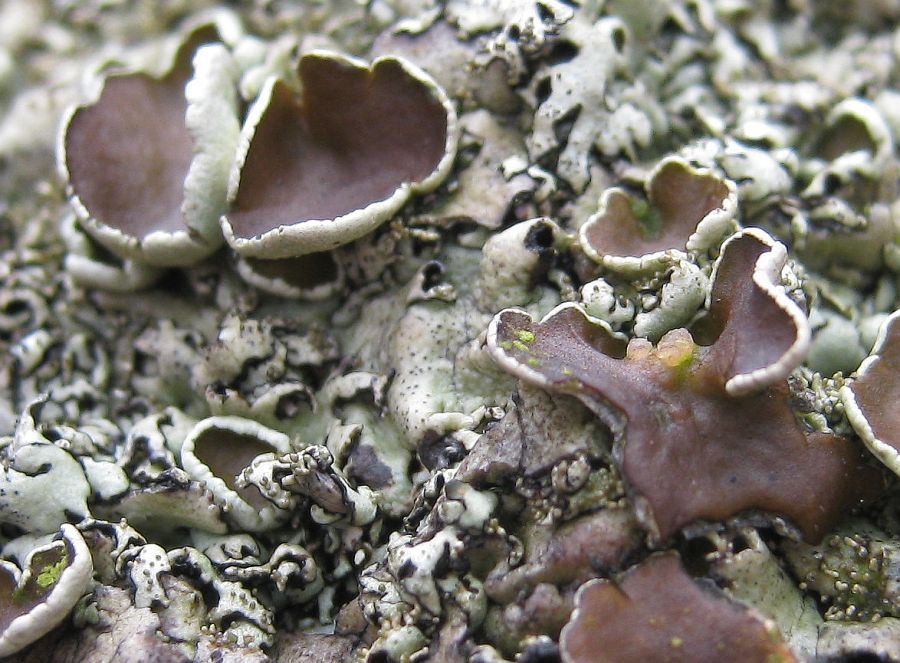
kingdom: Fungi
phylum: Ascomycota
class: Lecanoromycetes
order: Lecanorales
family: Parmeliaceae
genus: Xanthoparmelia
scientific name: Xanthoparmelia tinctina
